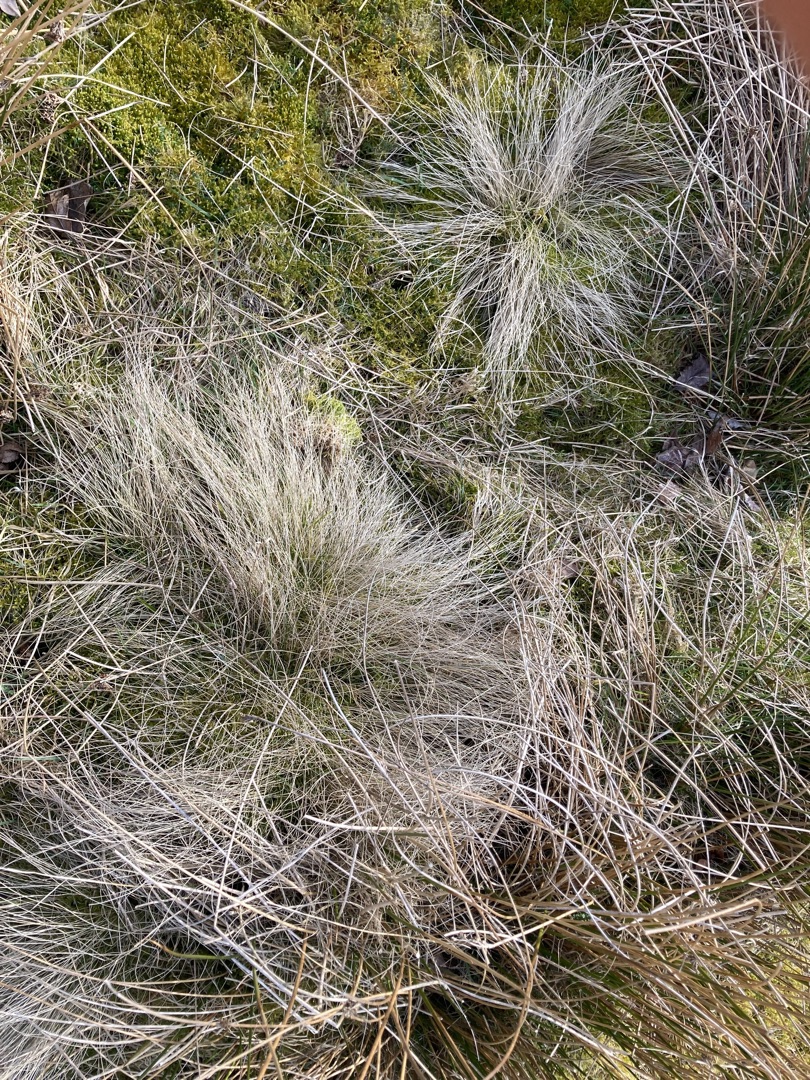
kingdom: Plantae
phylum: Tracheophyta
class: Liliopsida
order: Poales
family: Poaceae
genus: Nardus
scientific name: Nardus stricta
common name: Katteskæg
